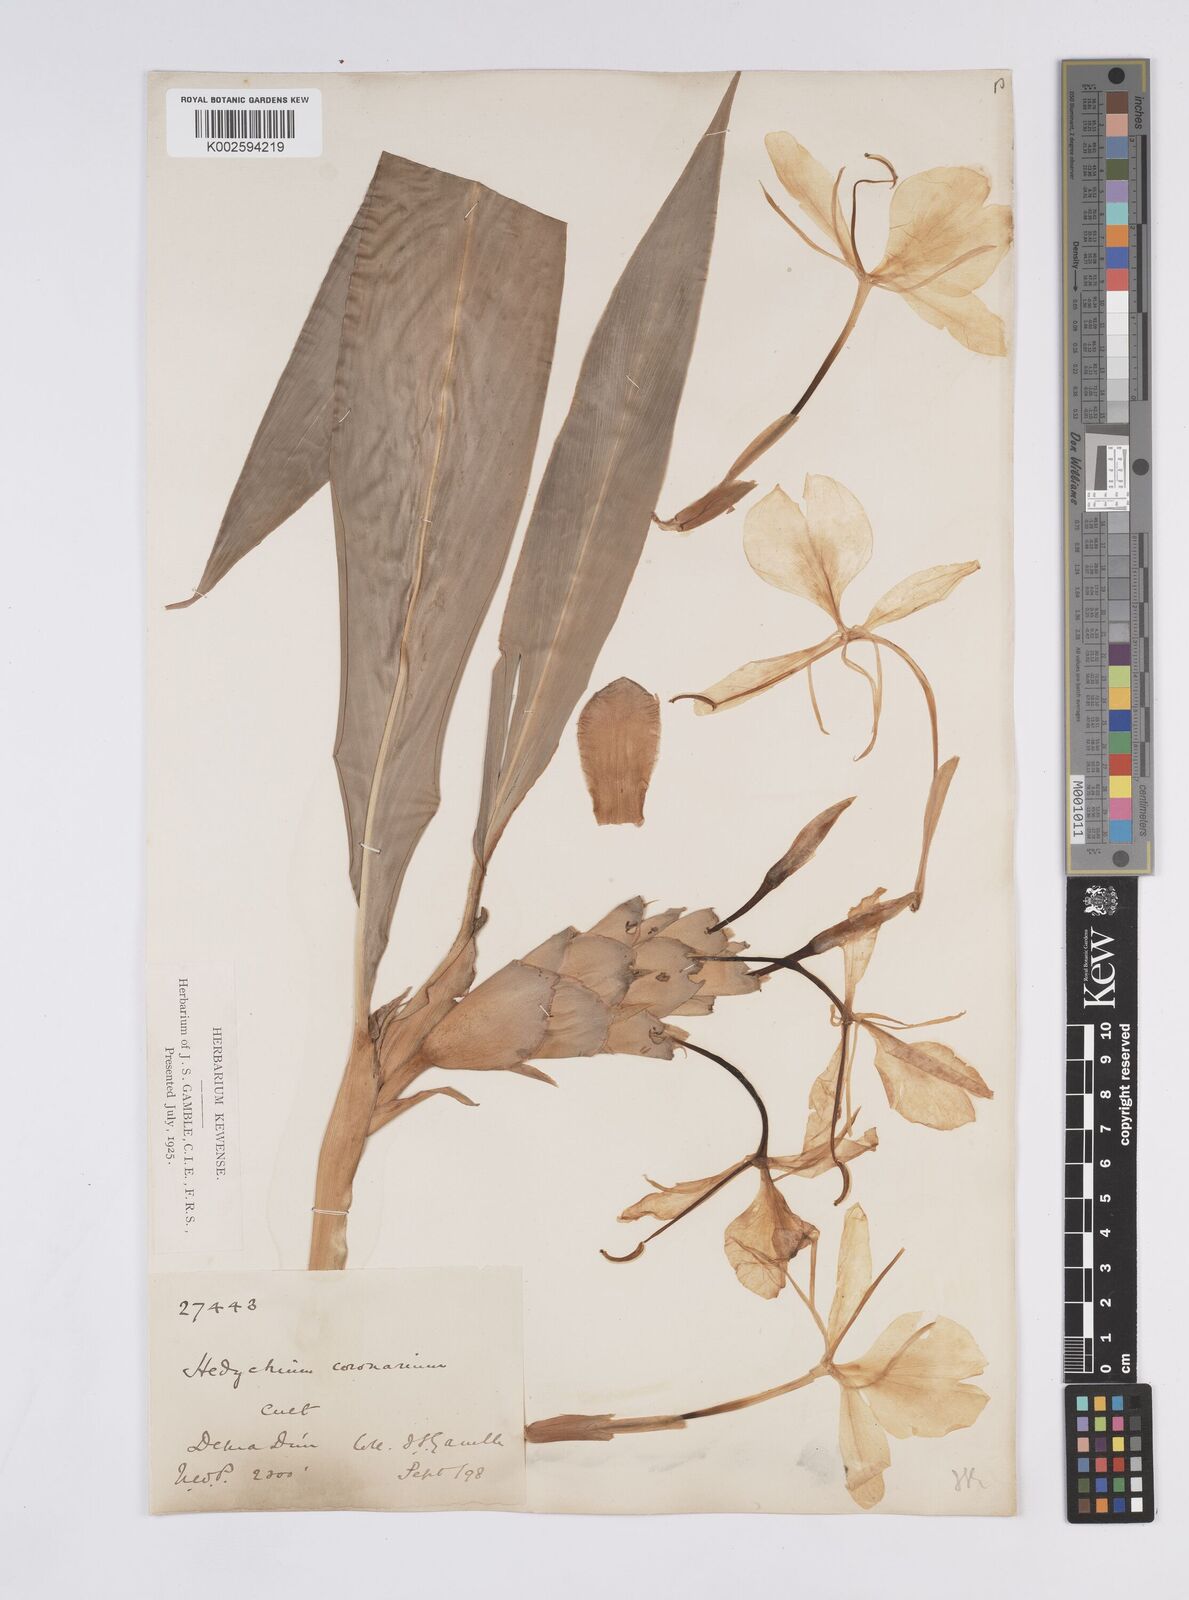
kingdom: Plantae
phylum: Tracheophyta
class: Liliopsida
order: Zingiberales
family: Zingiberaceae
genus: Hedychium
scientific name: Hedychium
